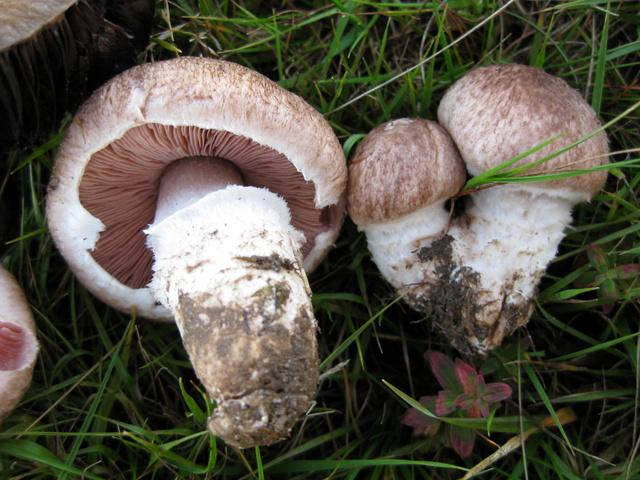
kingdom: Fungi
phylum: Basidiomycota
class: Agaricomycetes
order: Agaricales
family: Agaricaceae
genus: Agaricus
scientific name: Agaricus cupreobrunneus
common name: kobberbrun champignon
